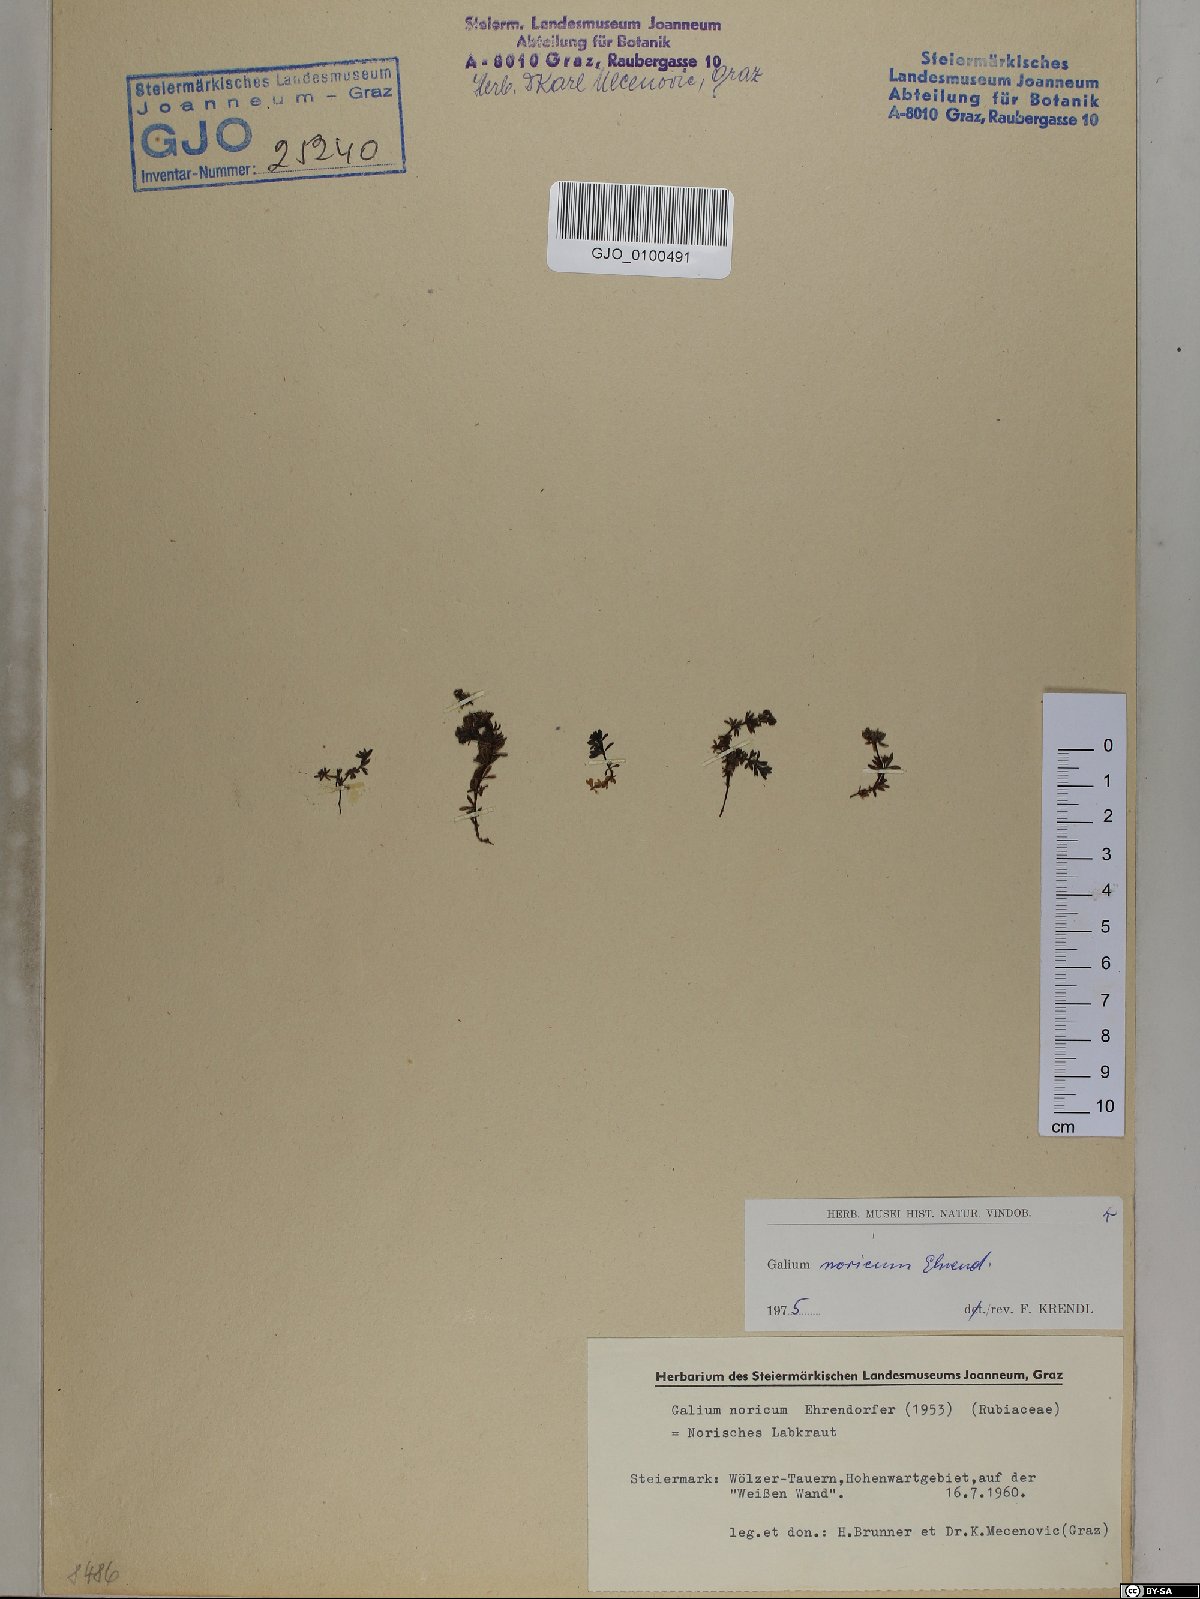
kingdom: Plantae
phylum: Tracheophyta
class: Magnoliopsida
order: Gentianales
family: Rubiaceae
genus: Galium
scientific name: Galium noricum
